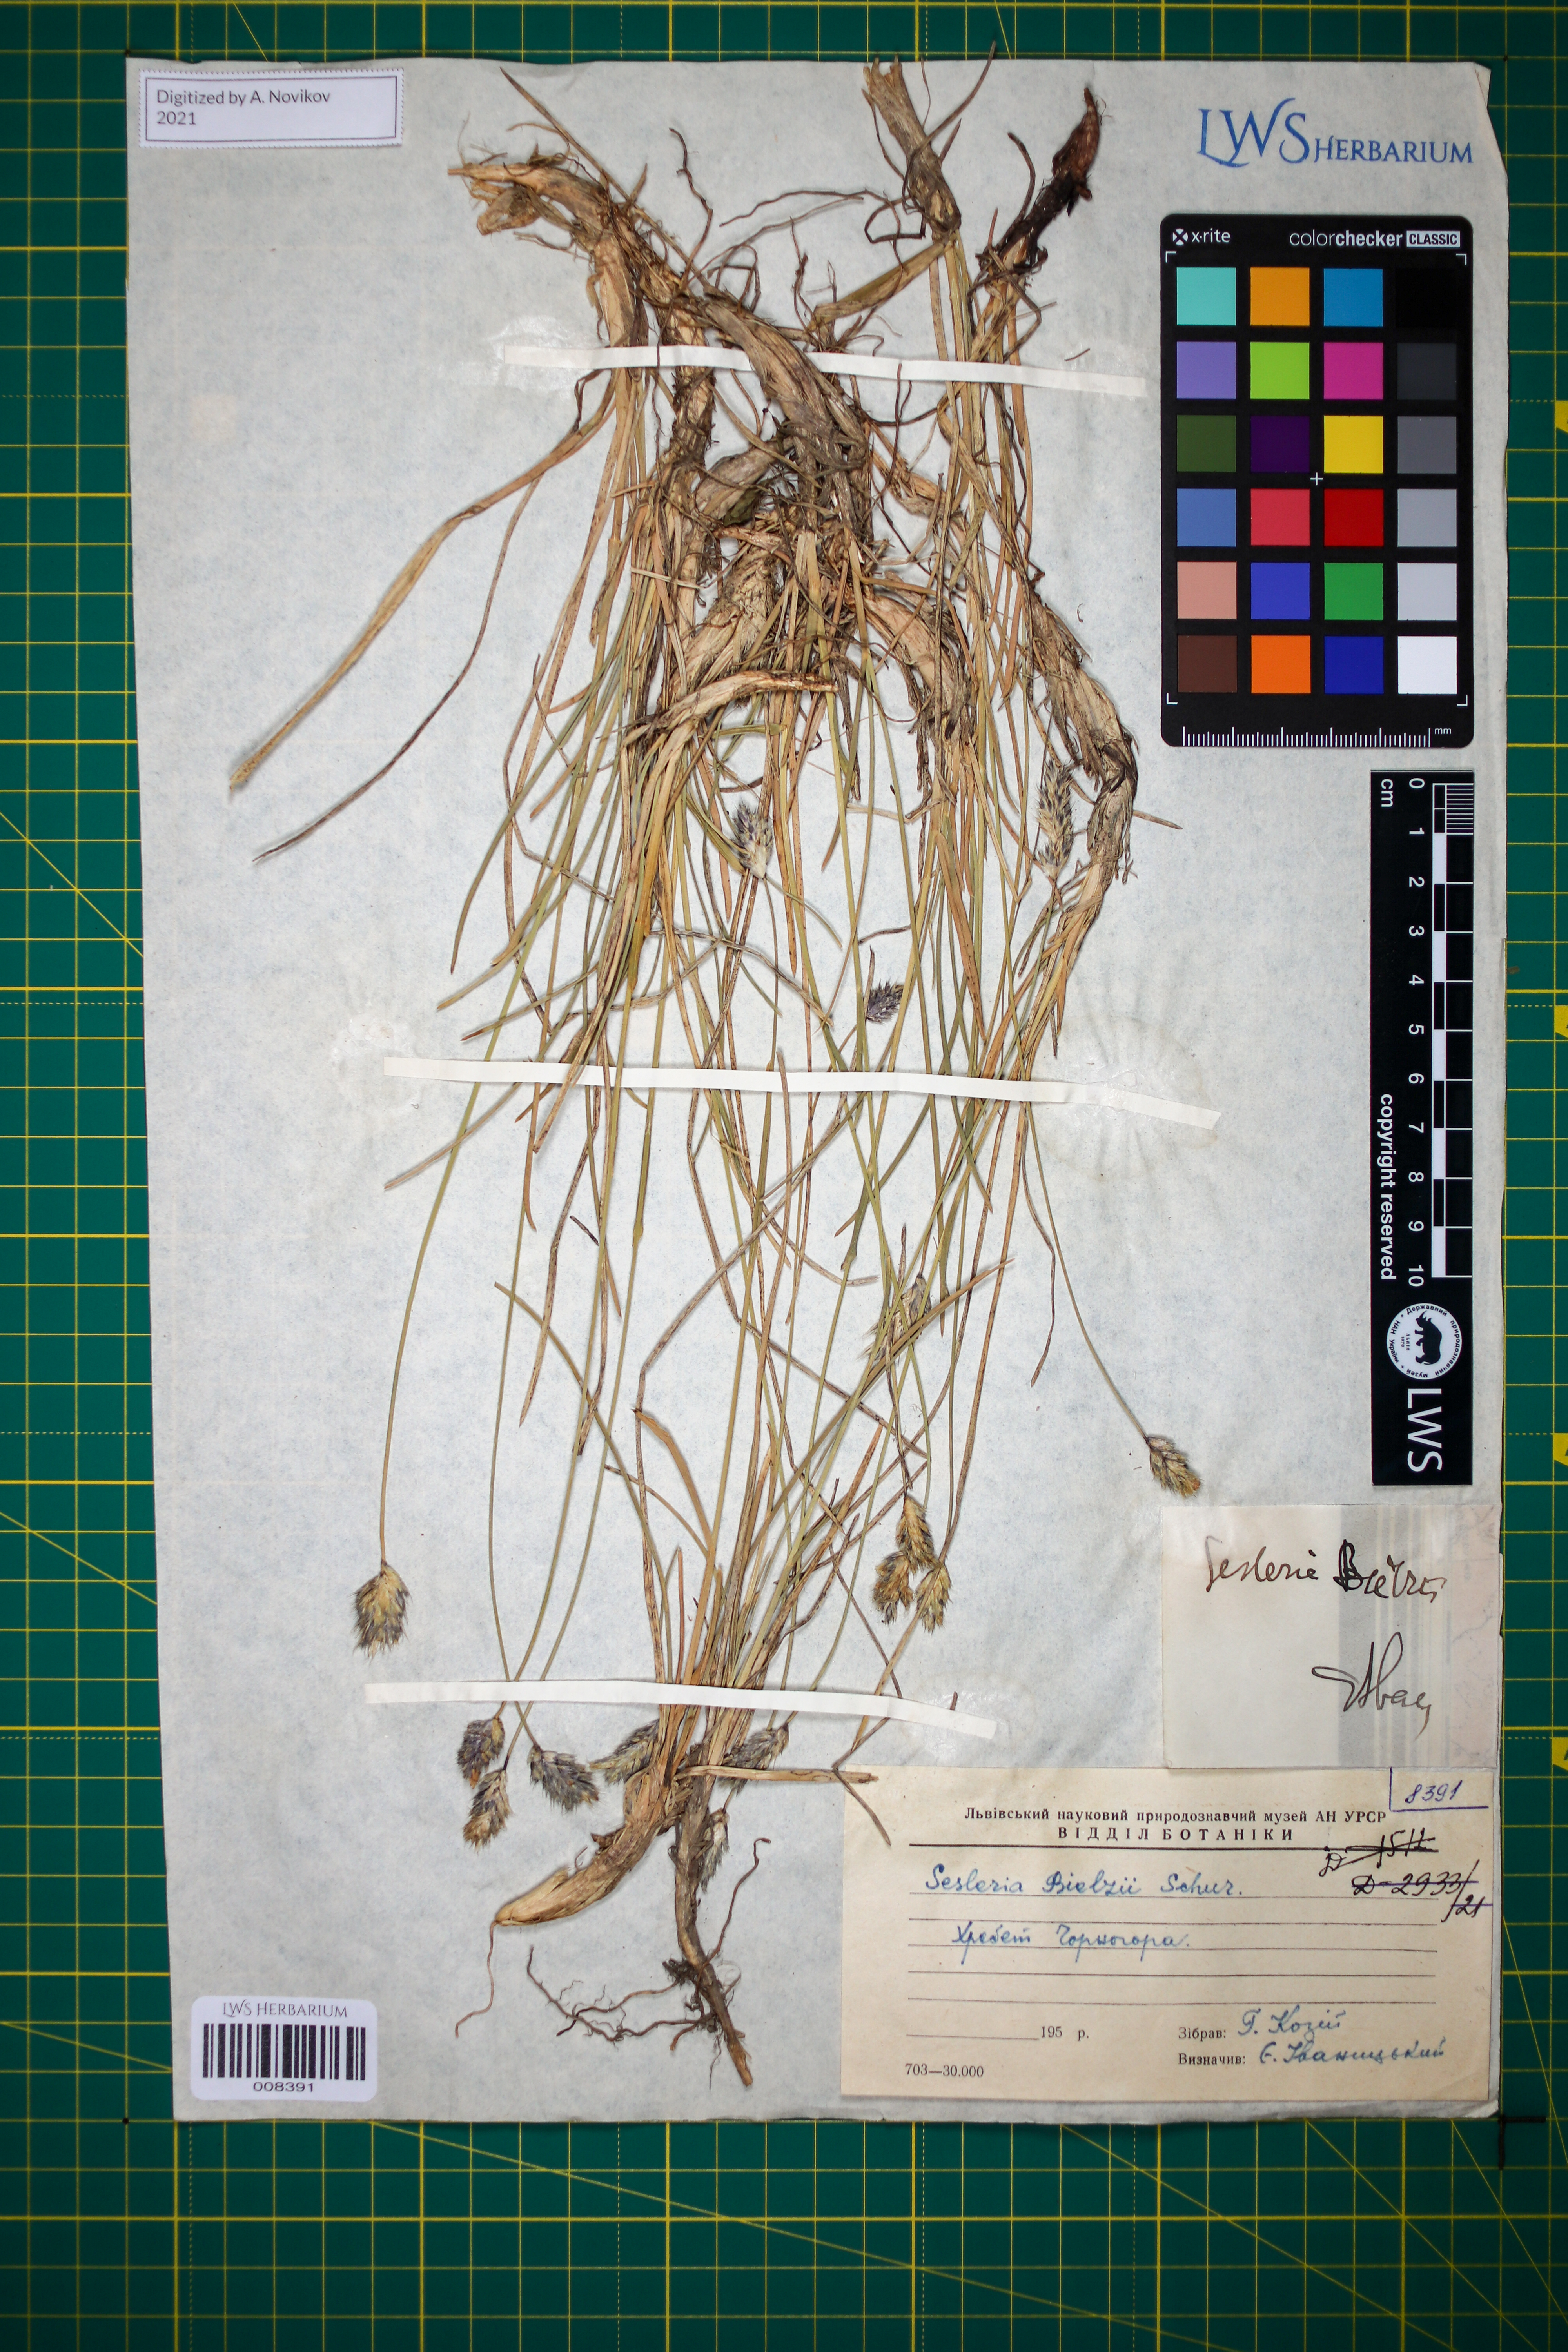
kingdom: Plantae
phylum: Tracheophyta
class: Liliopsida
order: Poales
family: Poaceae
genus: Sesleria
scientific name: Sesleria bielzii
